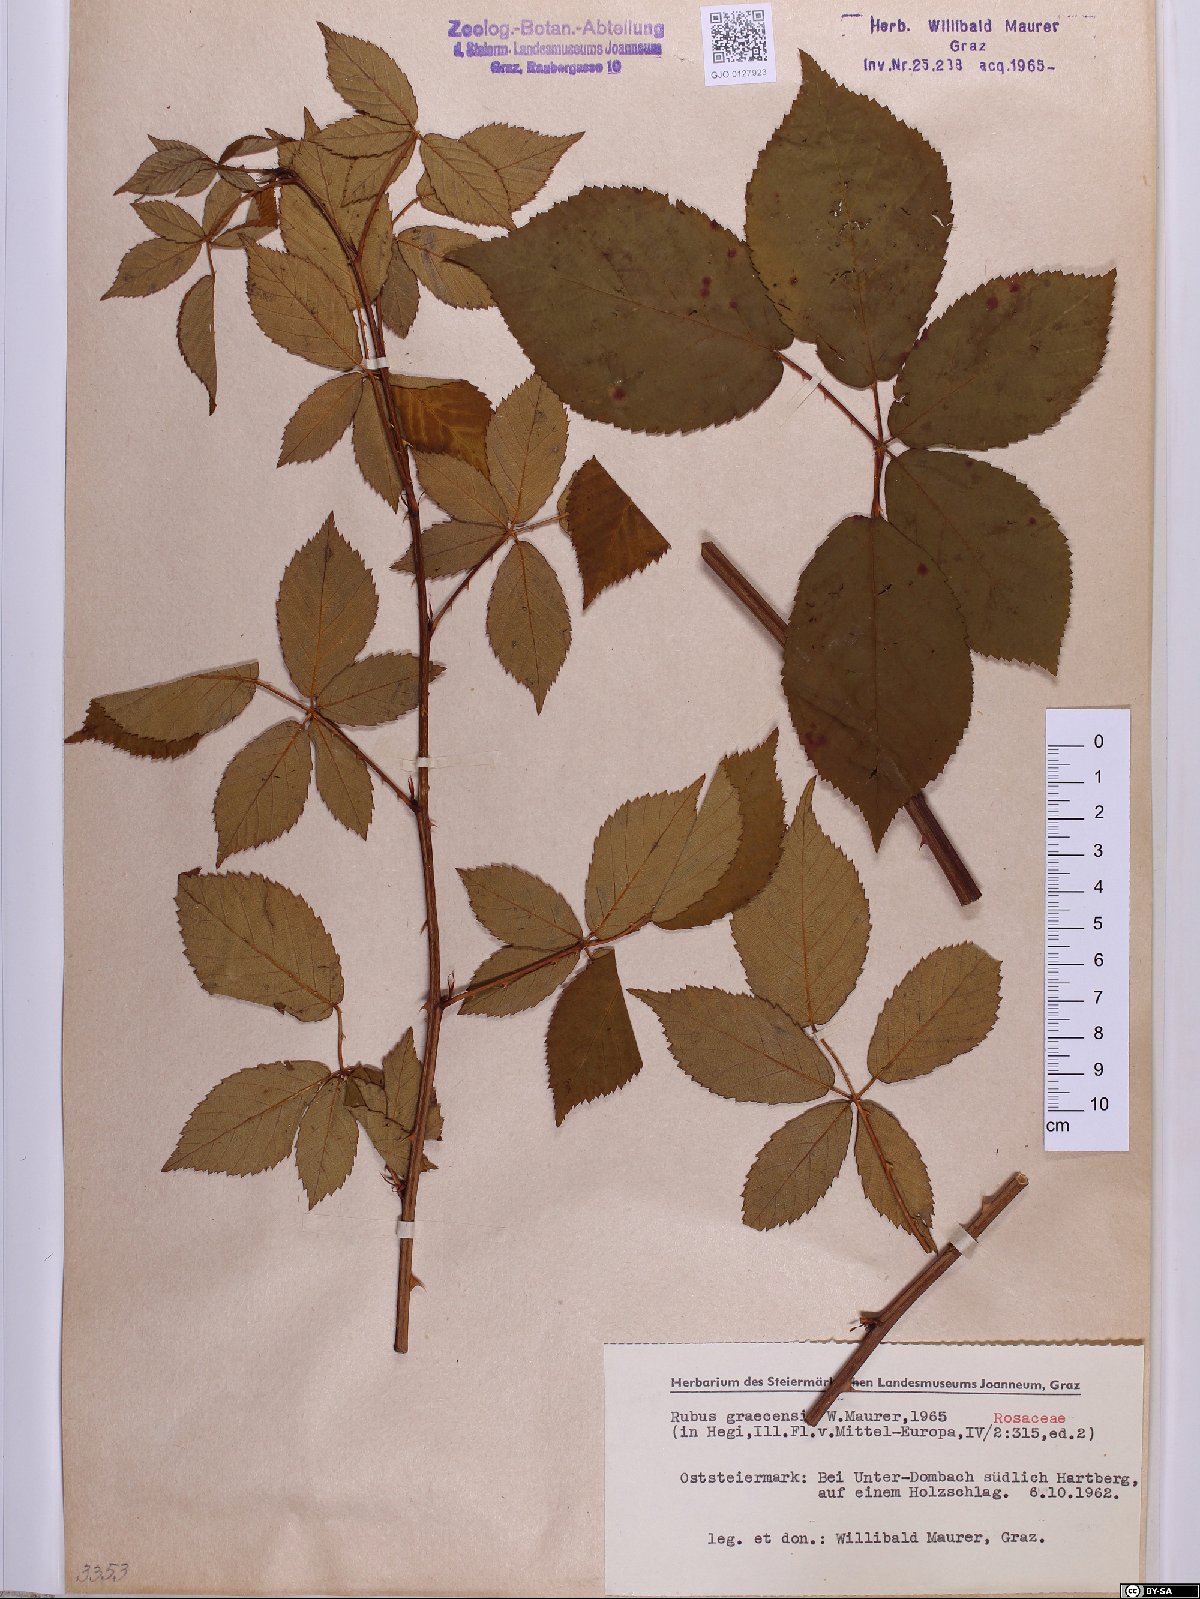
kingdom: Plantae
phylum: Tracheophyta
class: Magnoliopsida
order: Rosales
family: Rosaceae
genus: Rubus
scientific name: Rubus graecensis
